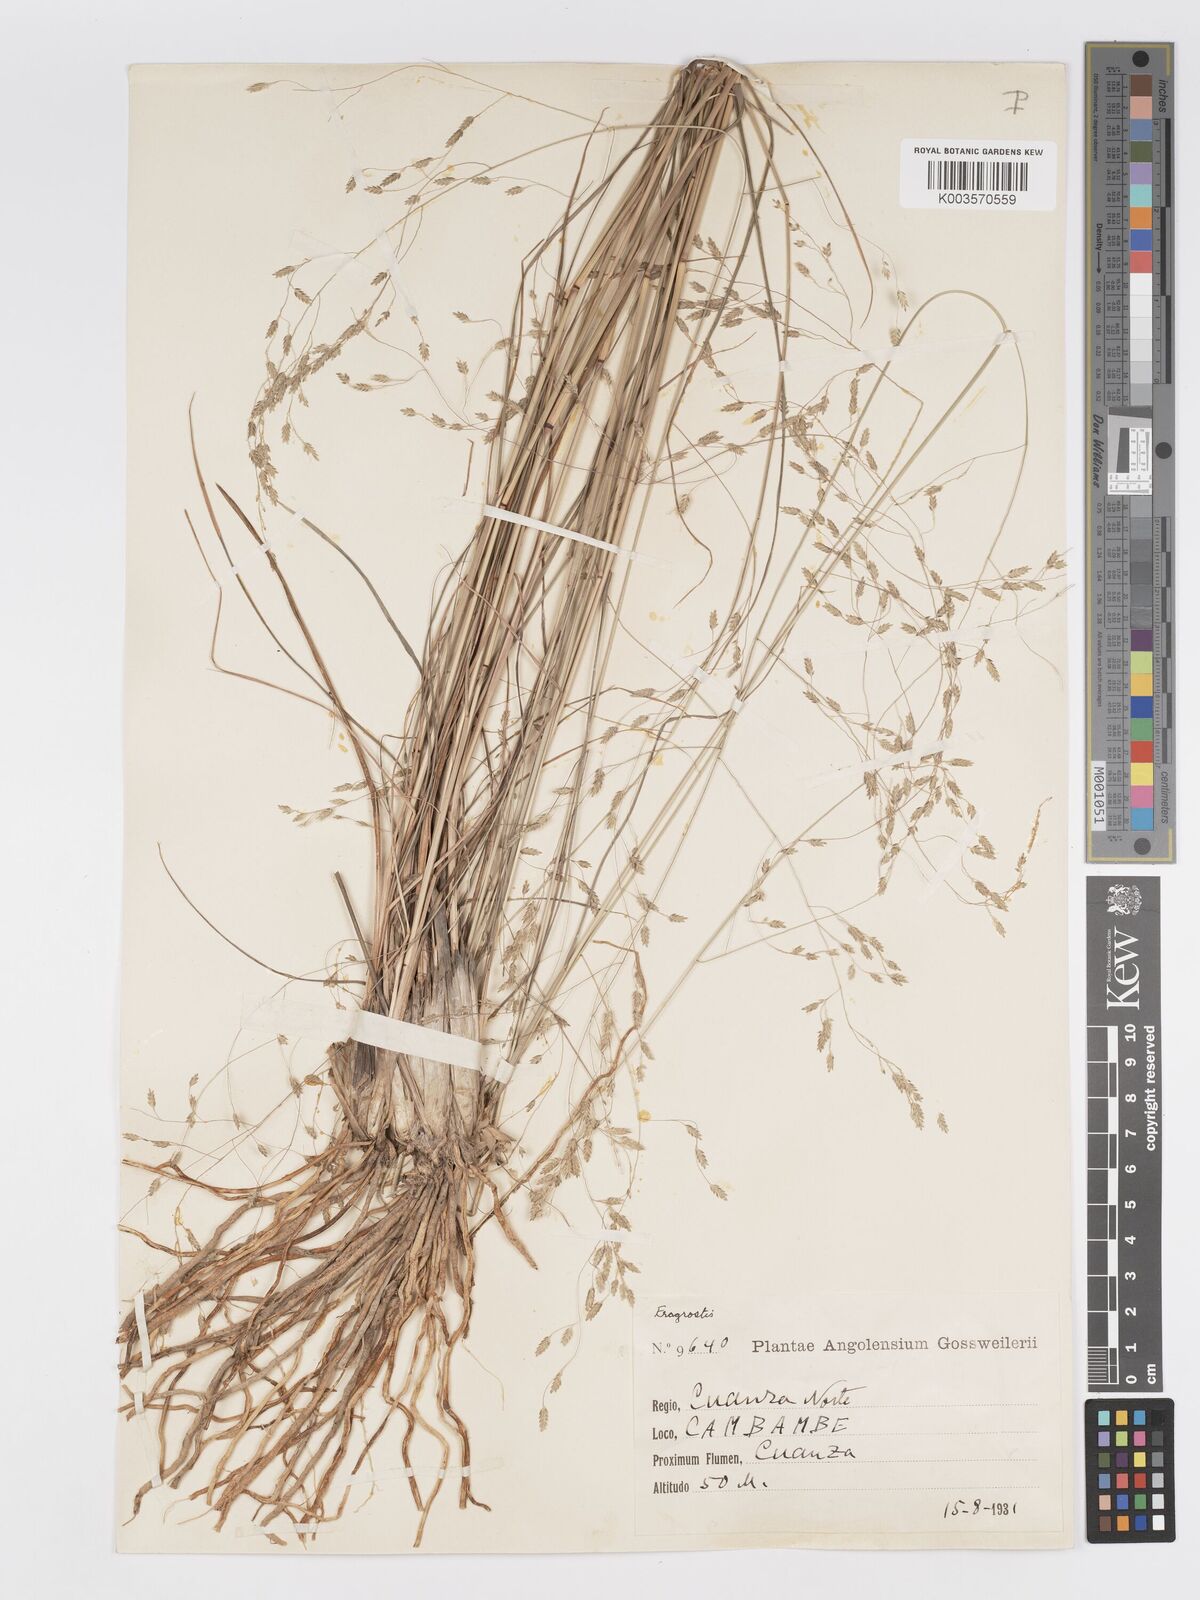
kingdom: Plantae
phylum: Tracheophyta
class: Liliopsida
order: Poales
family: Poaceae
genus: Eragrostis
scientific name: Eragrostis inamoena
